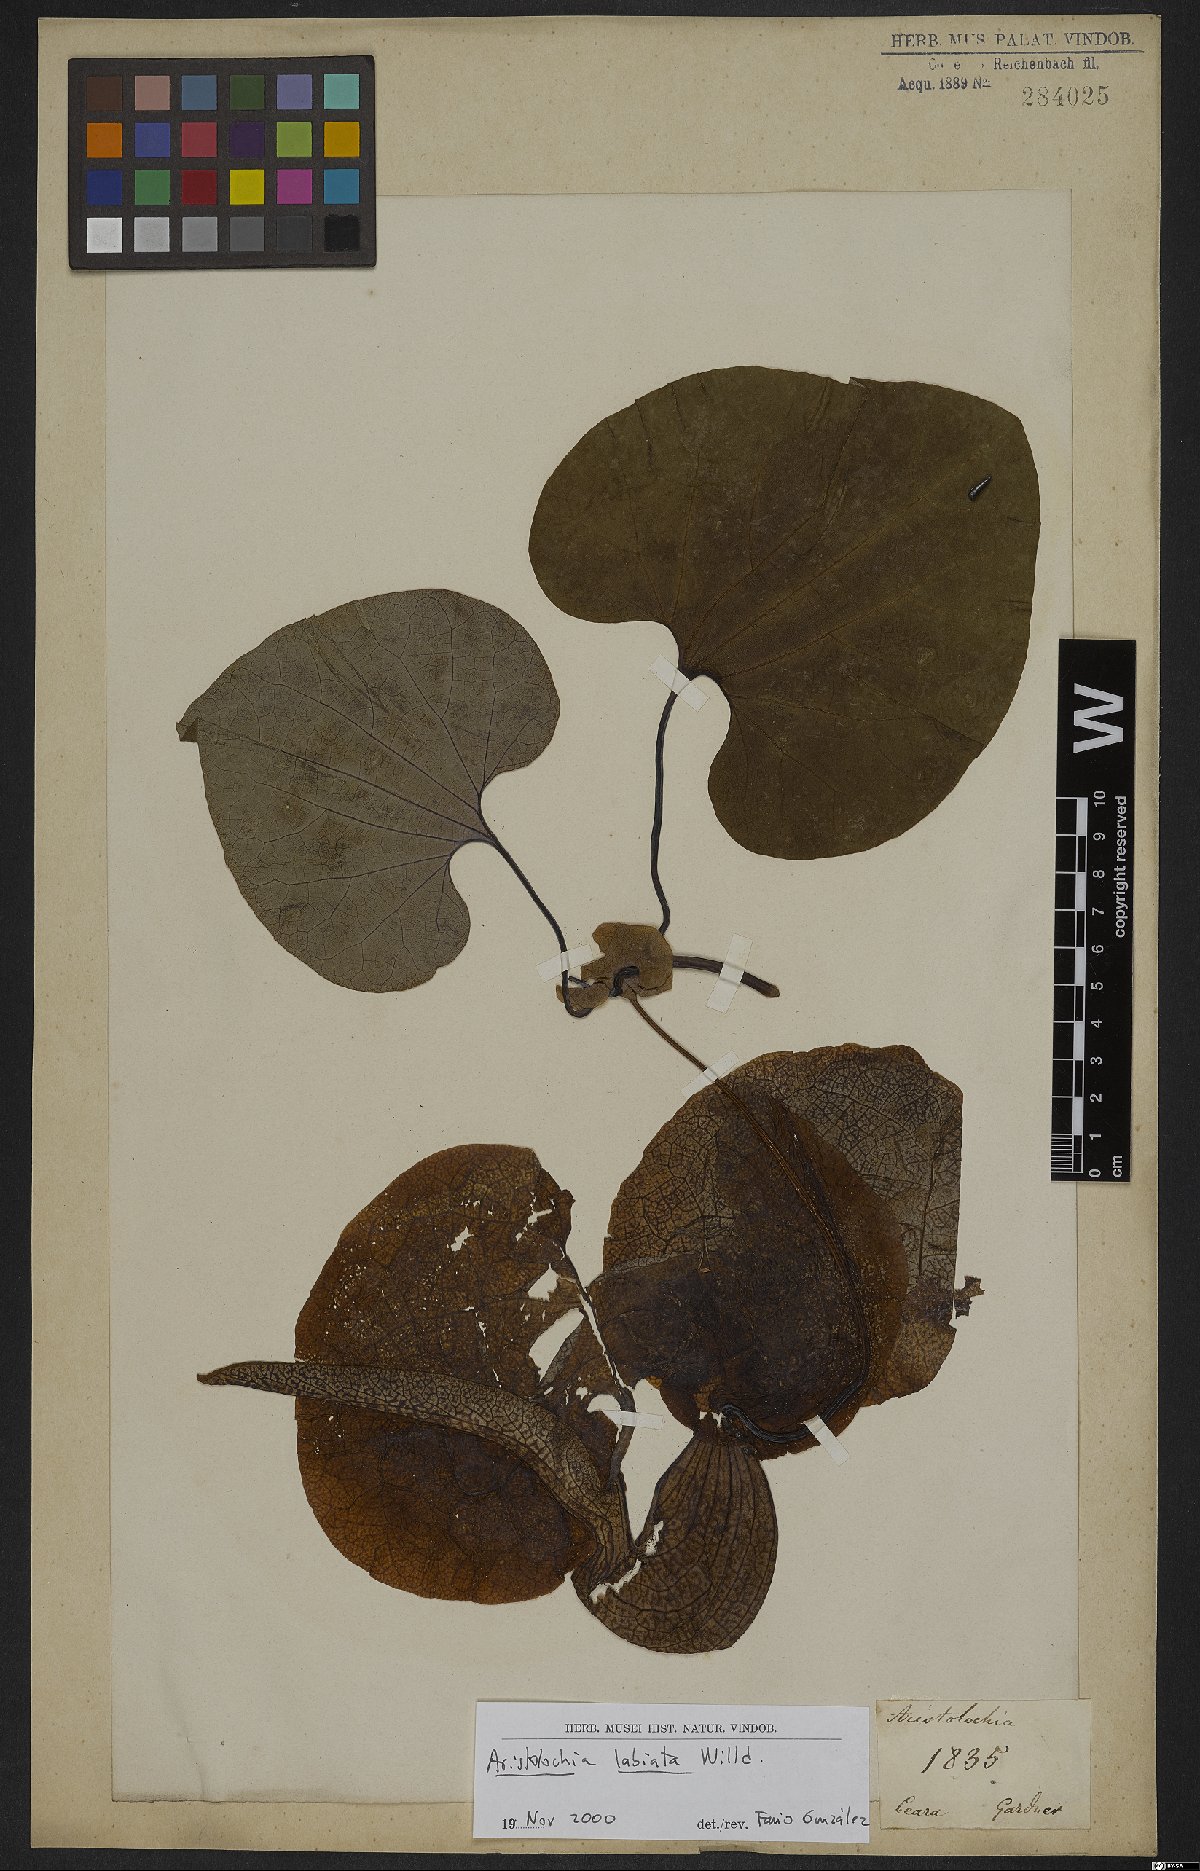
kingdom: Plantae
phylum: Tracheophyta
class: Magnoliopsida
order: Piperales
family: Aristolochiaceae
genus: Aristolochia
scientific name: Aristolochia labiata
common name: Mottled dutchman's pipe
